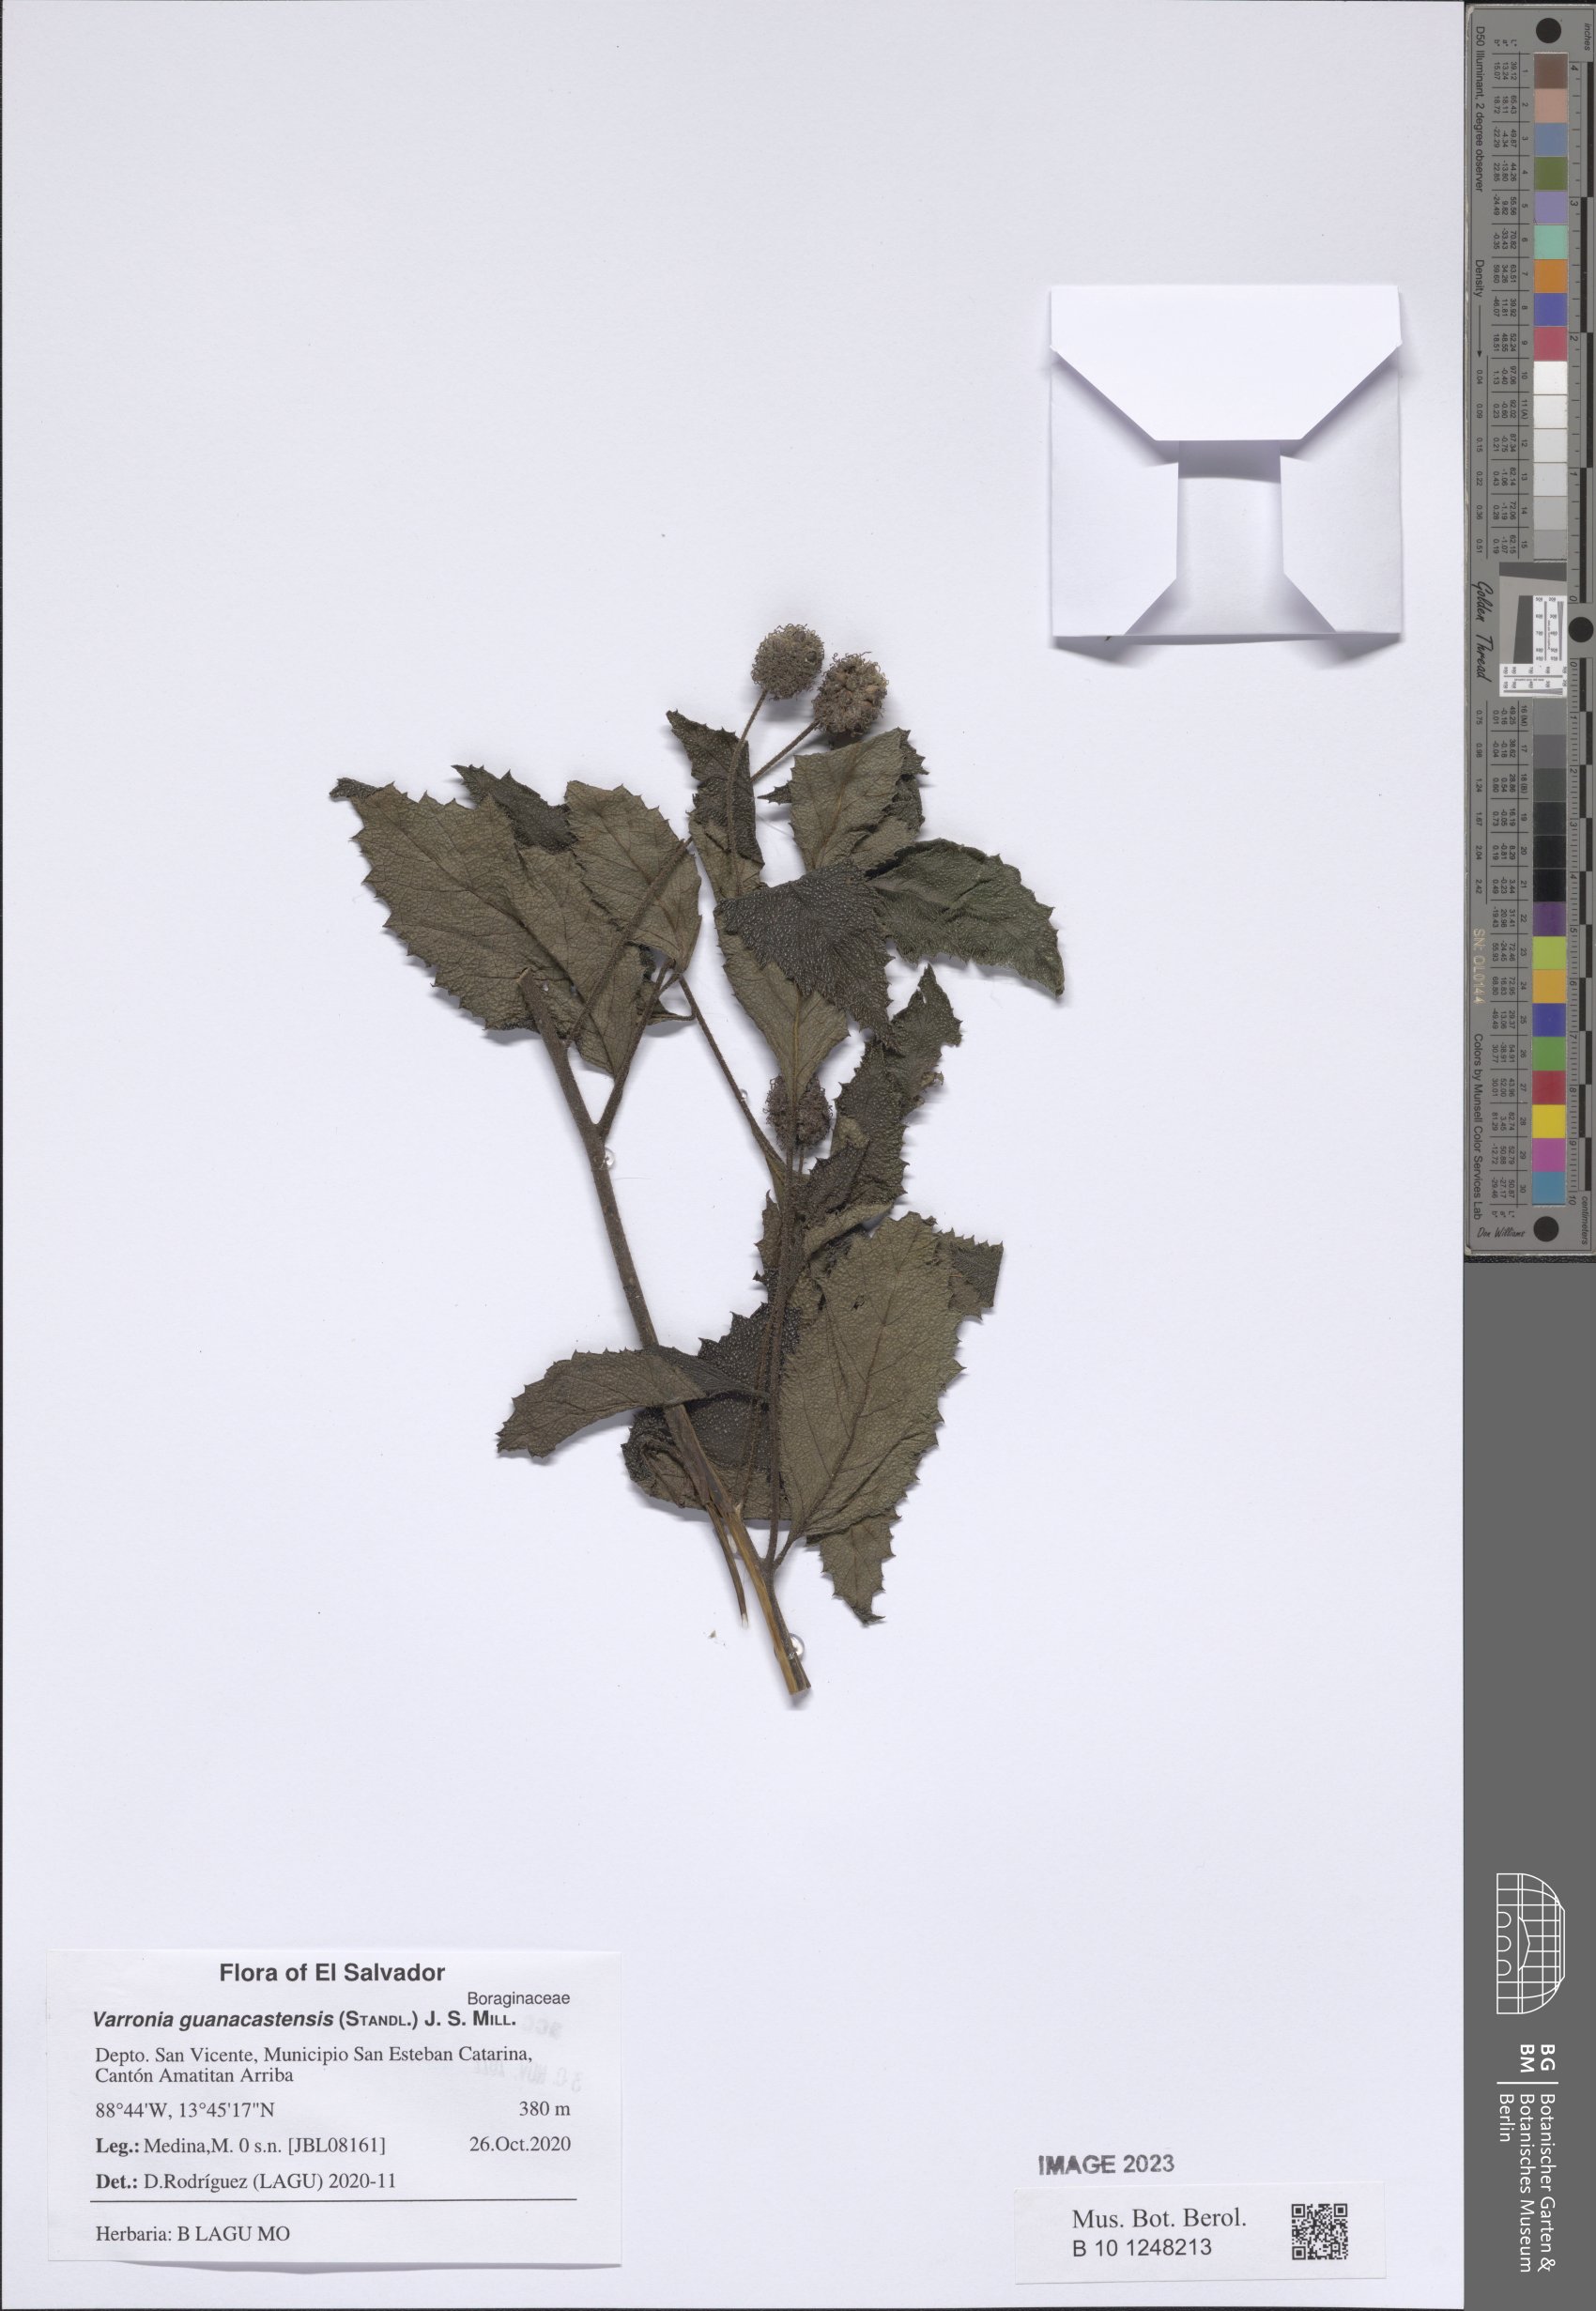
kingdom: Plantae
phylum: Tracheophyta
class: Magnoliopsida
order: Boraginales
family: Cordiaceae
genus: Varronia
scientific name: Varronia guanacastensis
